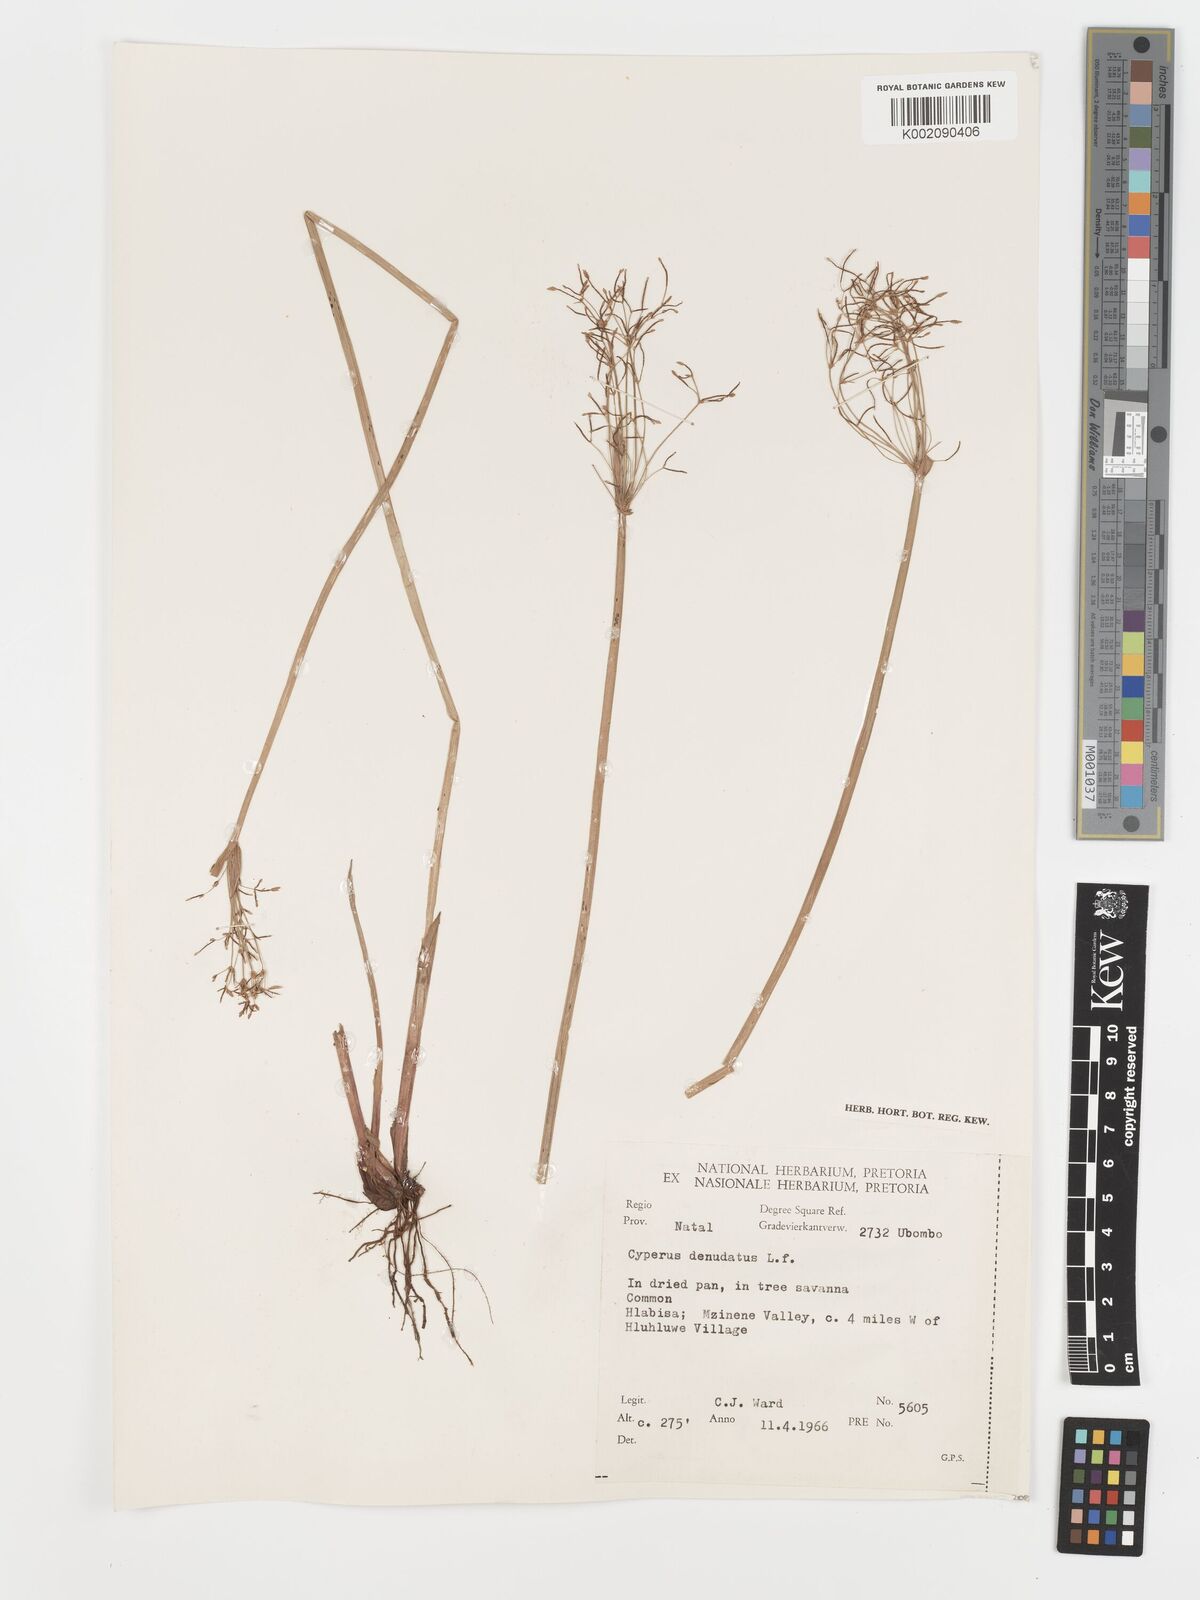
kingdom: Plantae
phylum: Tracheophyta
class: Liliopsida
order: Poales
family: Cyperaceae
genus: Cyperus
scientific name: Cyperus platycaulis
